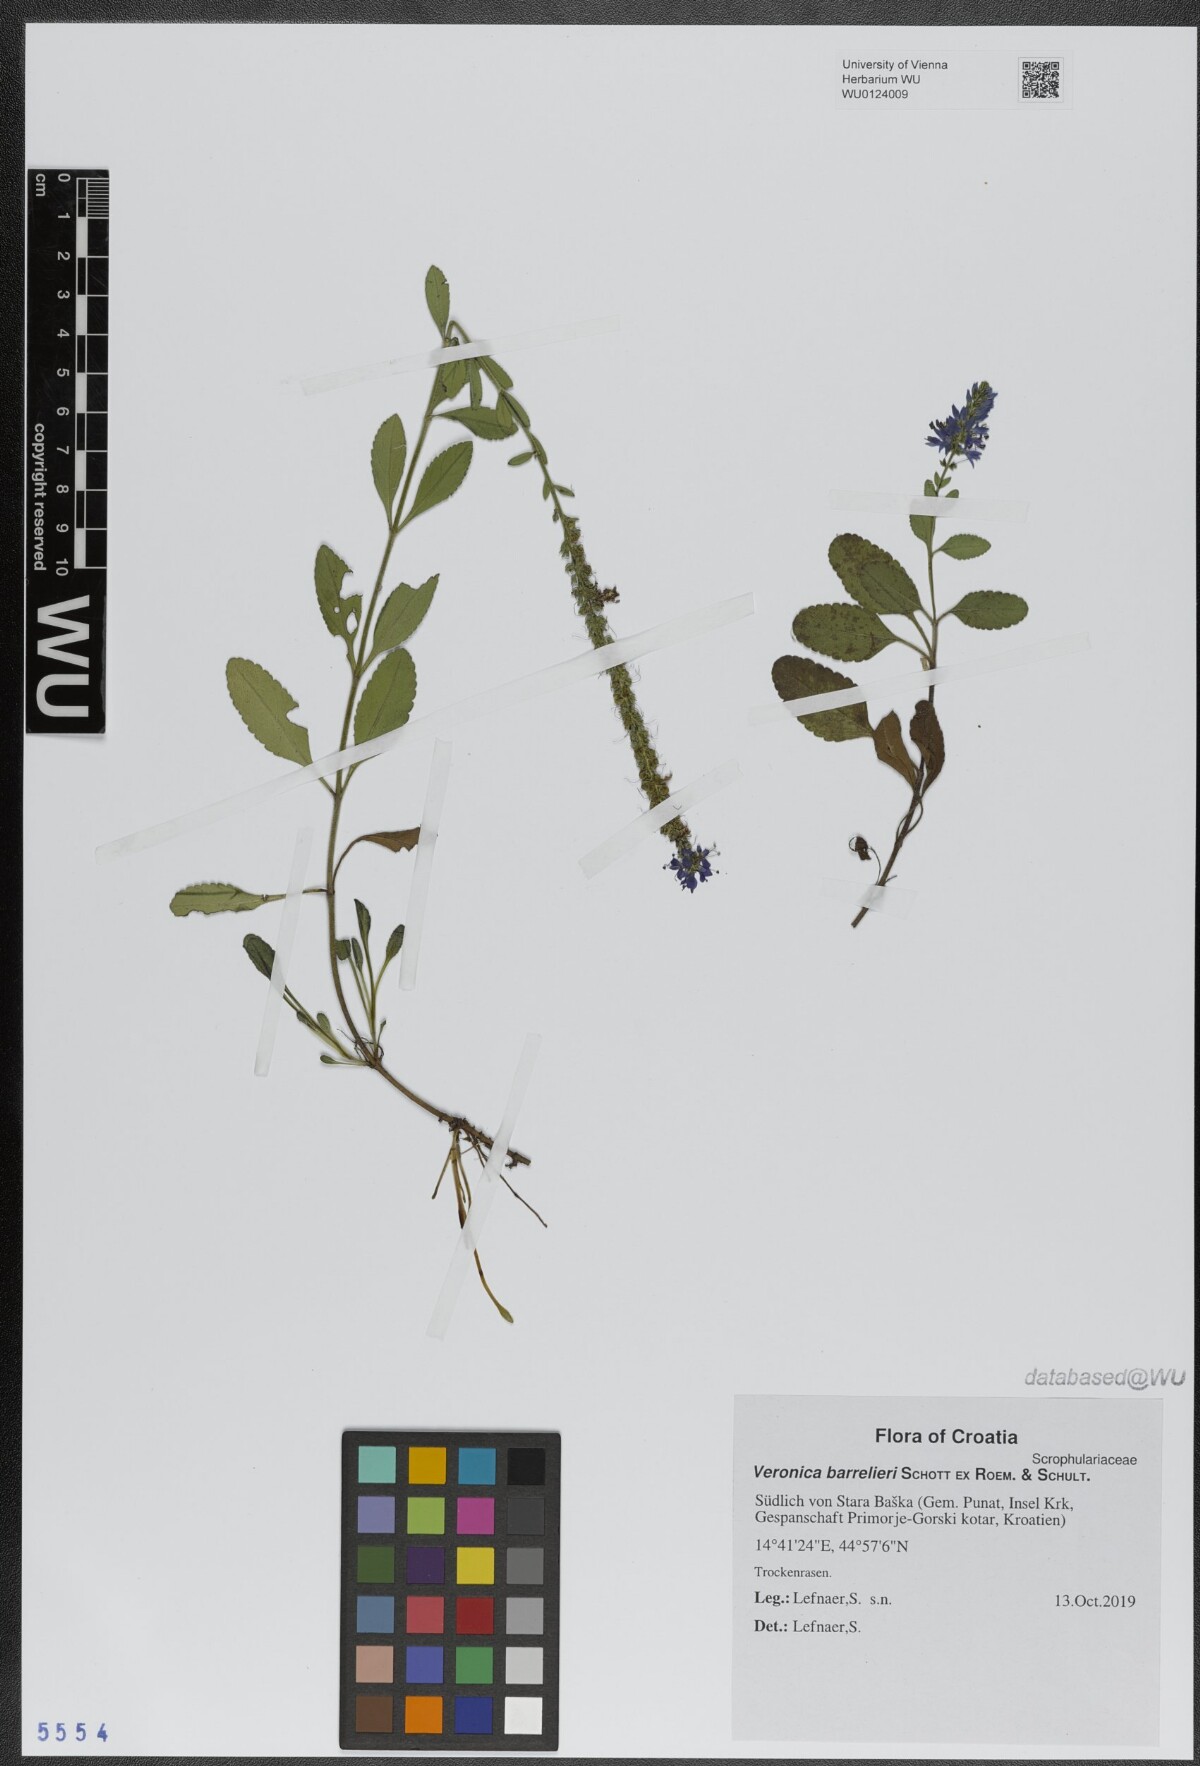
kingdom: Plantae
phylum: Tracheophyta
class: Magnoliopsida
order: Lamiales
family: Plantaginaceae
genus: Veronica
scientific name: Veronica barrelieri
